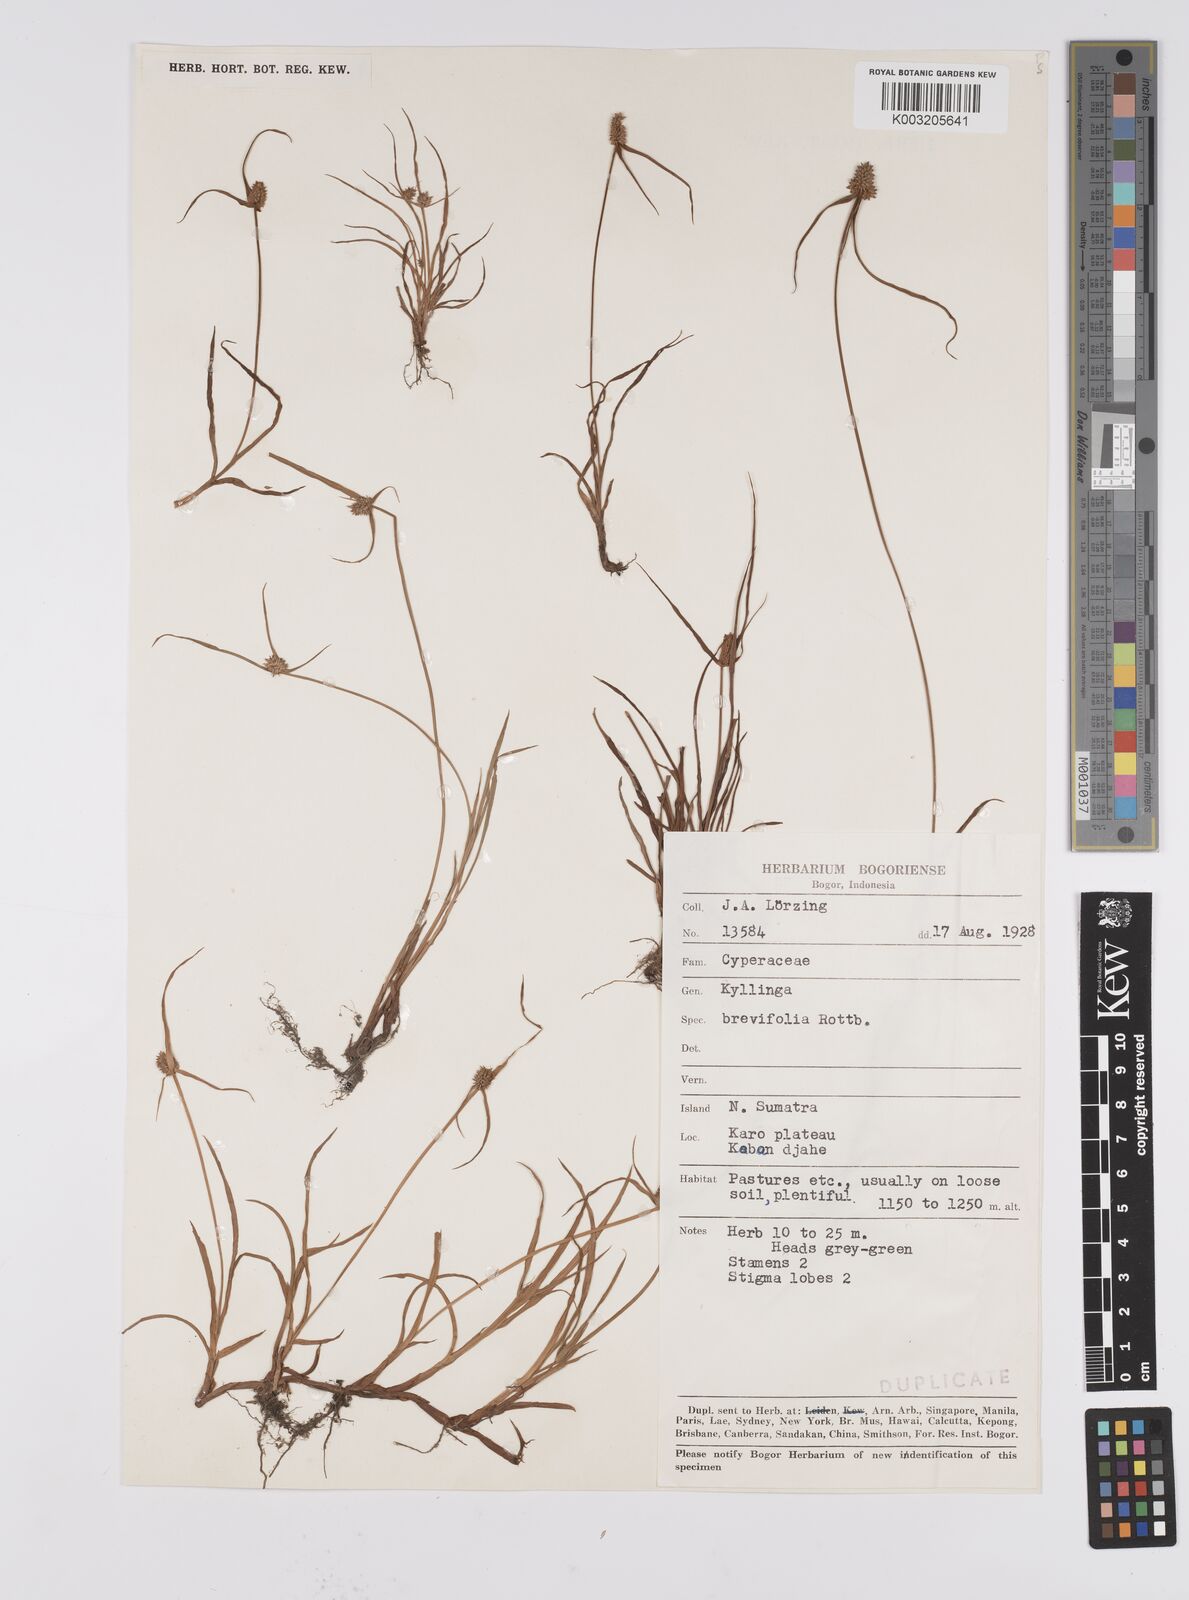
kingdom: Plantae
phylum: Tracheophyta
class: Liliopsida
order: Poales
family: Cyperaceae
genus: Cyperus
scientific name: Cyperus brevifolius
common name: Globe kyllinga
